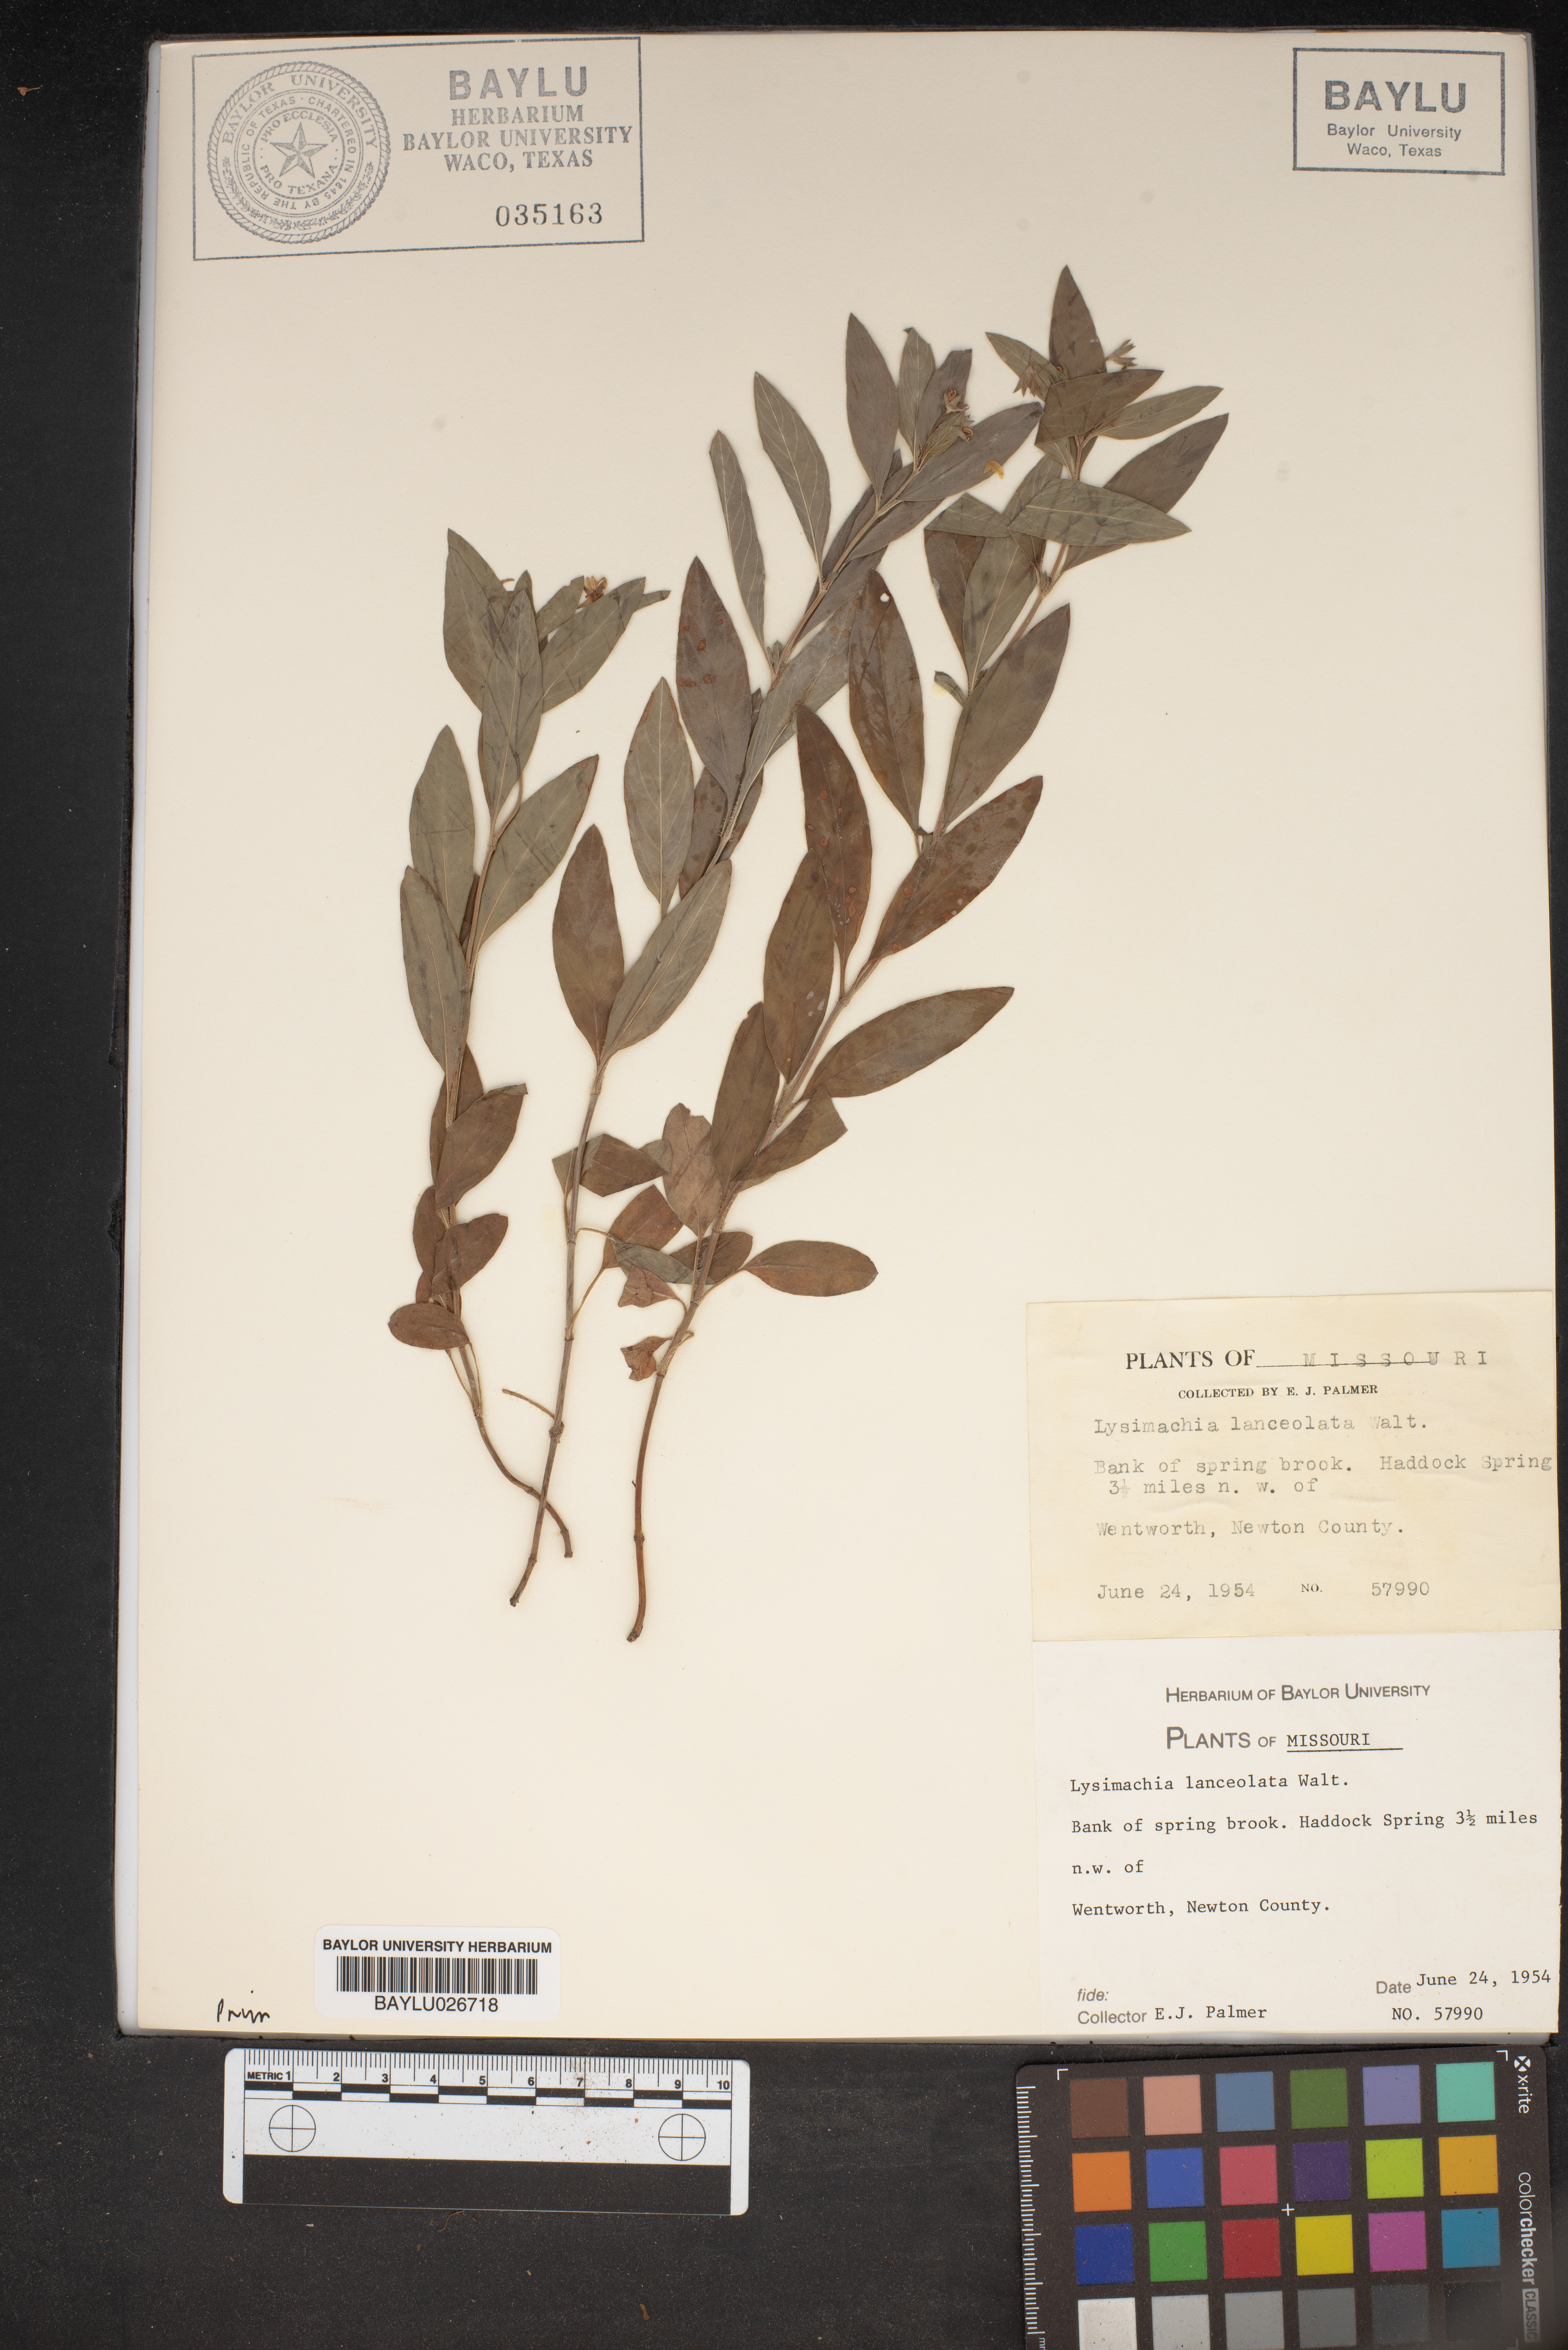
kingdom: Plantae
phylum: Tracheophyta
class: Magnoliopsida
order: Ericales
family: Primulaceae
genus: Lysimachia
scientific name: Lysimachia lanceolata
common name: Lance-leaved loosestrife
